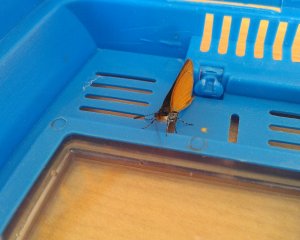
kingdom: Animalia
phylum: Arthropoda
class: Insecta
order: Lepidoptera
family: Hesperiidae
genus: Ancyloxypha
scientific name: Ancyloxypha numitor
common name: Least Skipper
